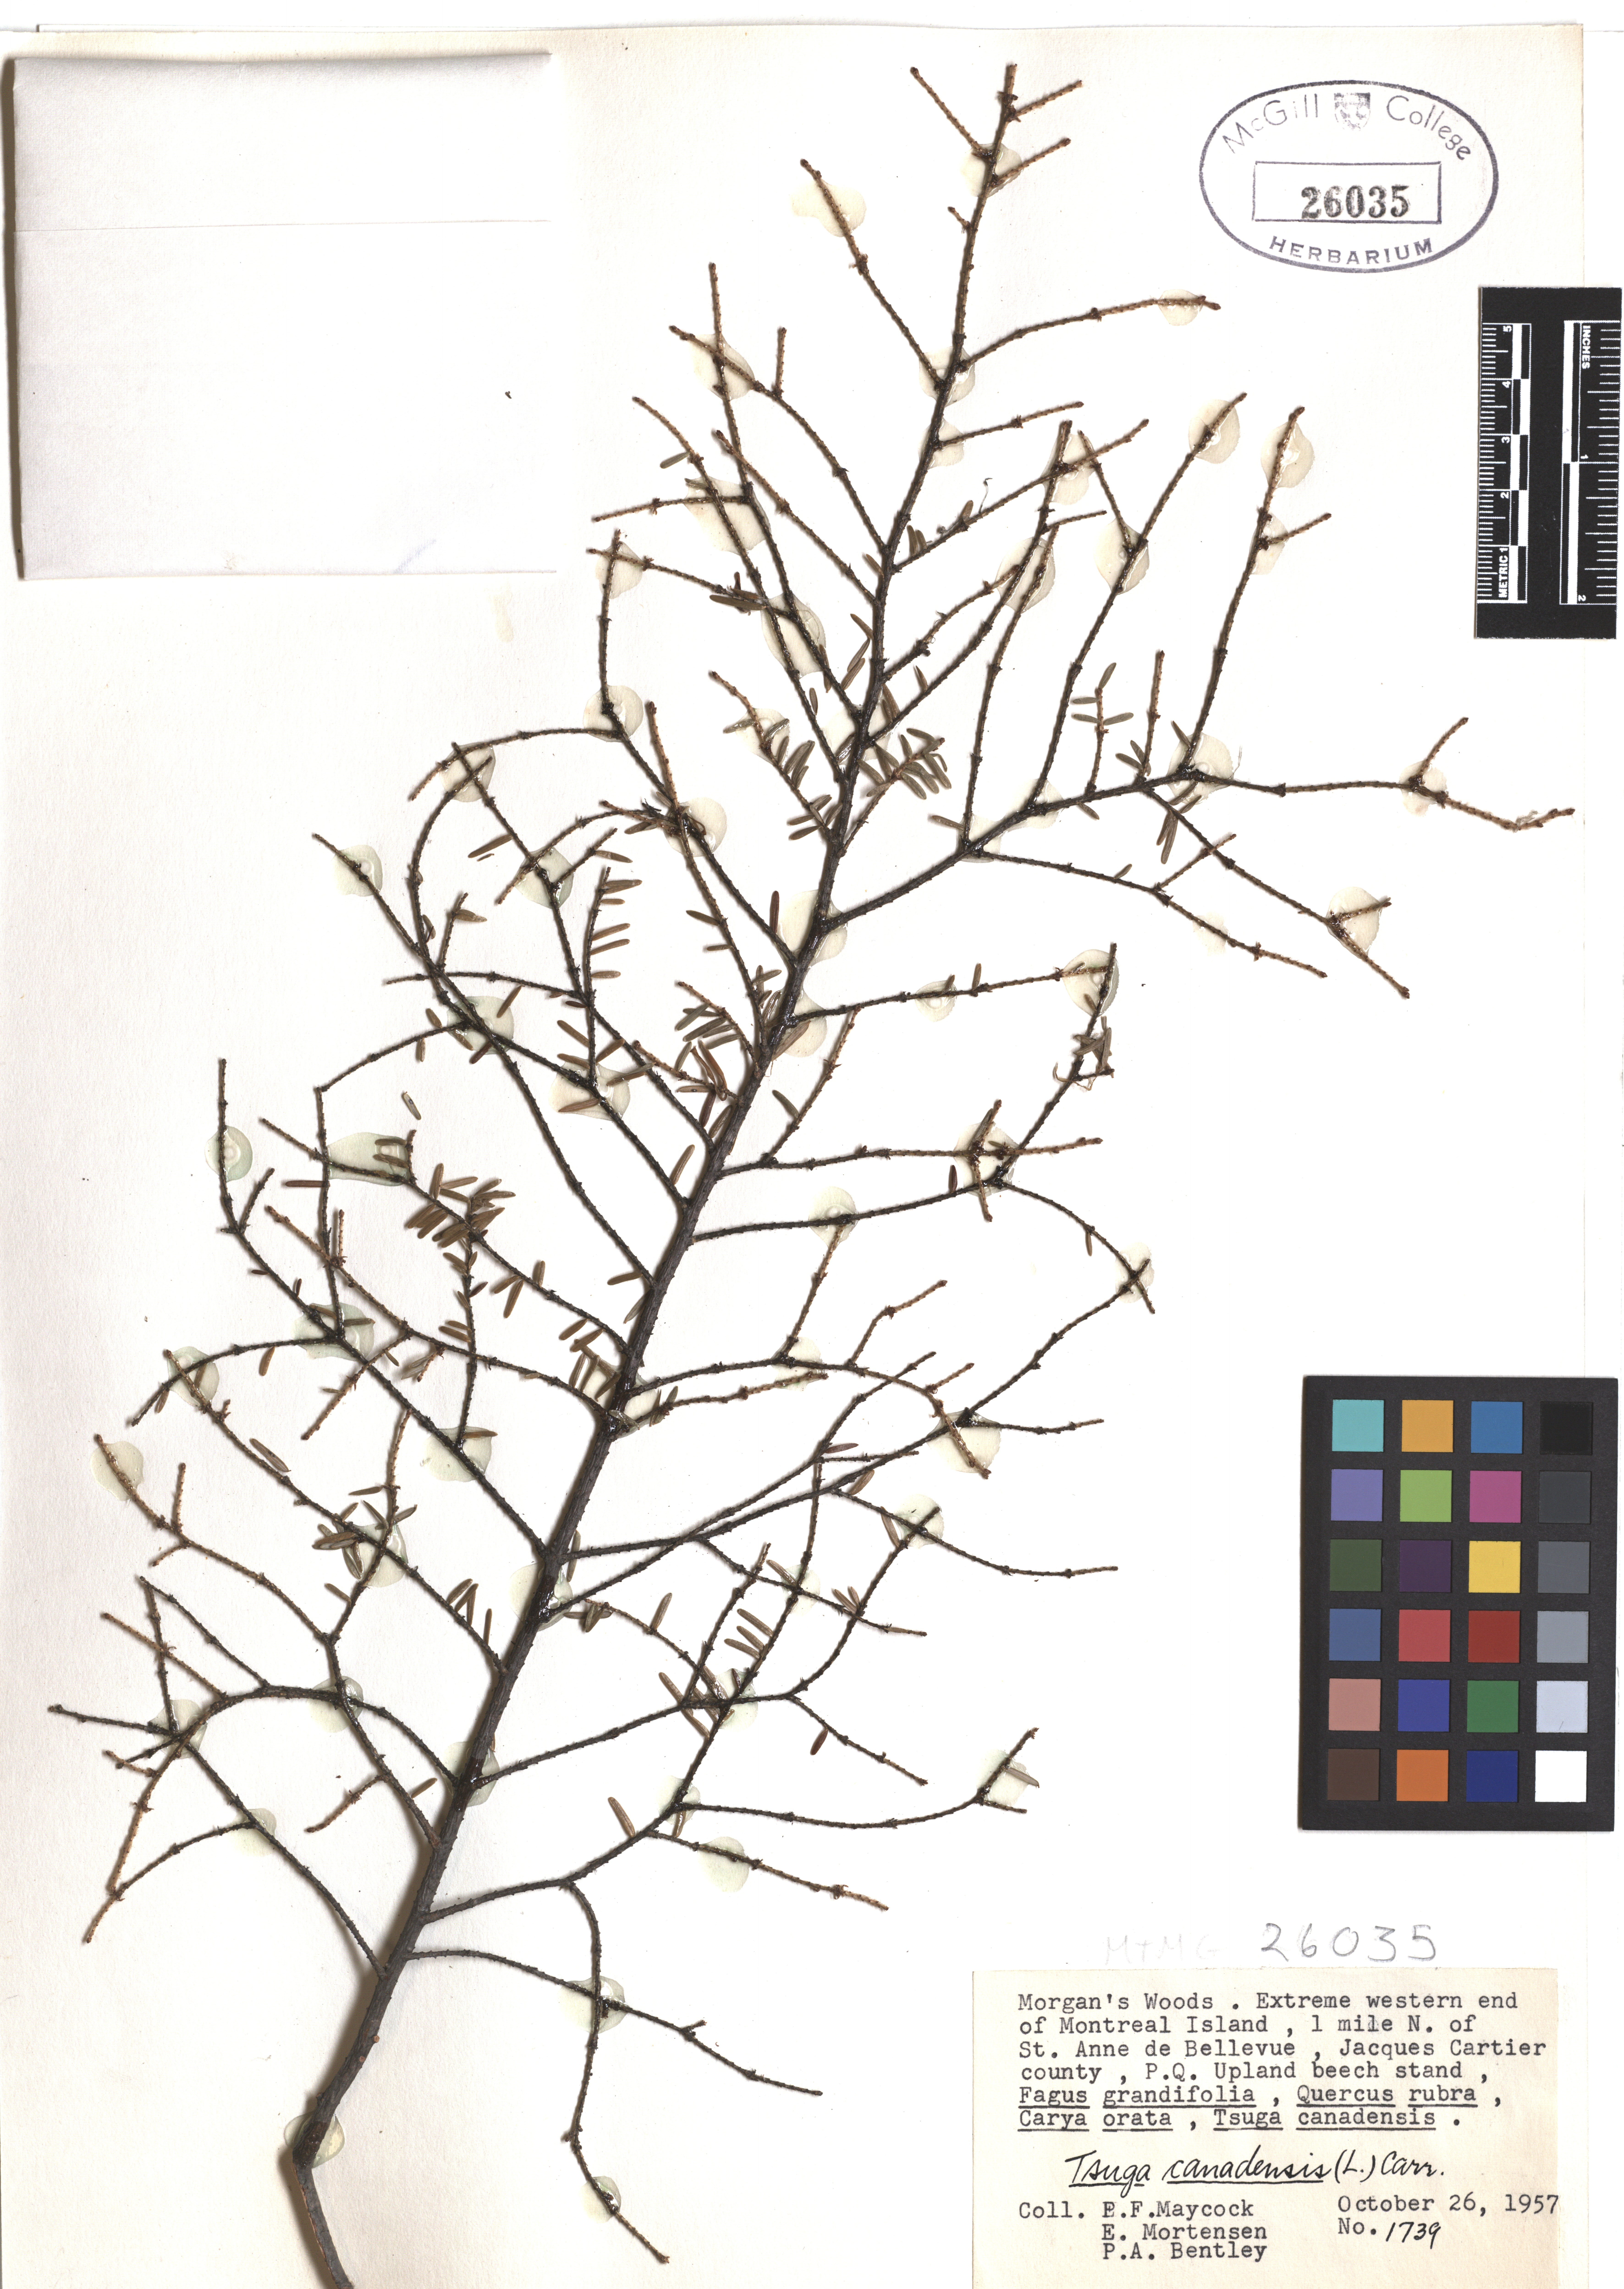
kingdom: Plantae
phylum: Tracheophyta
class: Pinopsida
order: Pinales
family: Pinaceae
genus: Tsuga
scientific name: Tsuga canadensis
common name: Eastern hemlock
